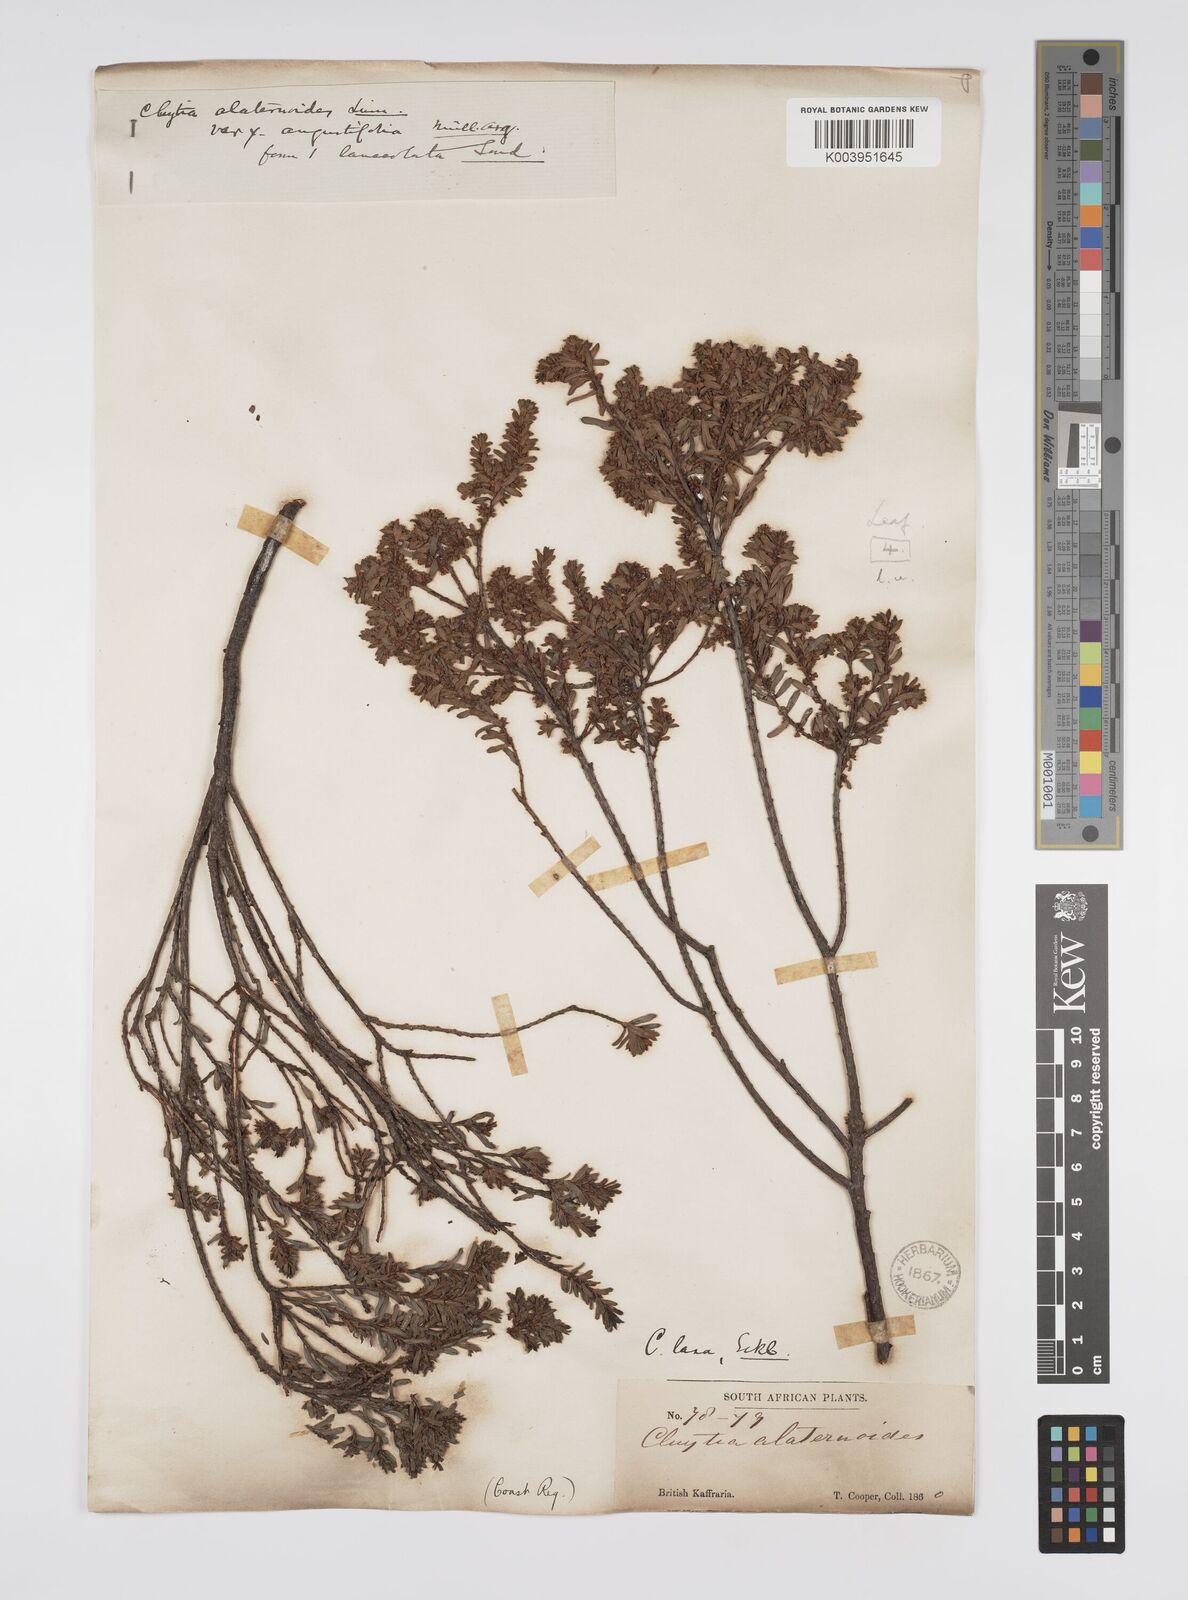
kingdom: Plantae
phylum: Tracheophyta
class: Magnoliopsida
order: Malpighiales
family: Peraceae
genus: Clutia
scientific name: Clutia laxa
